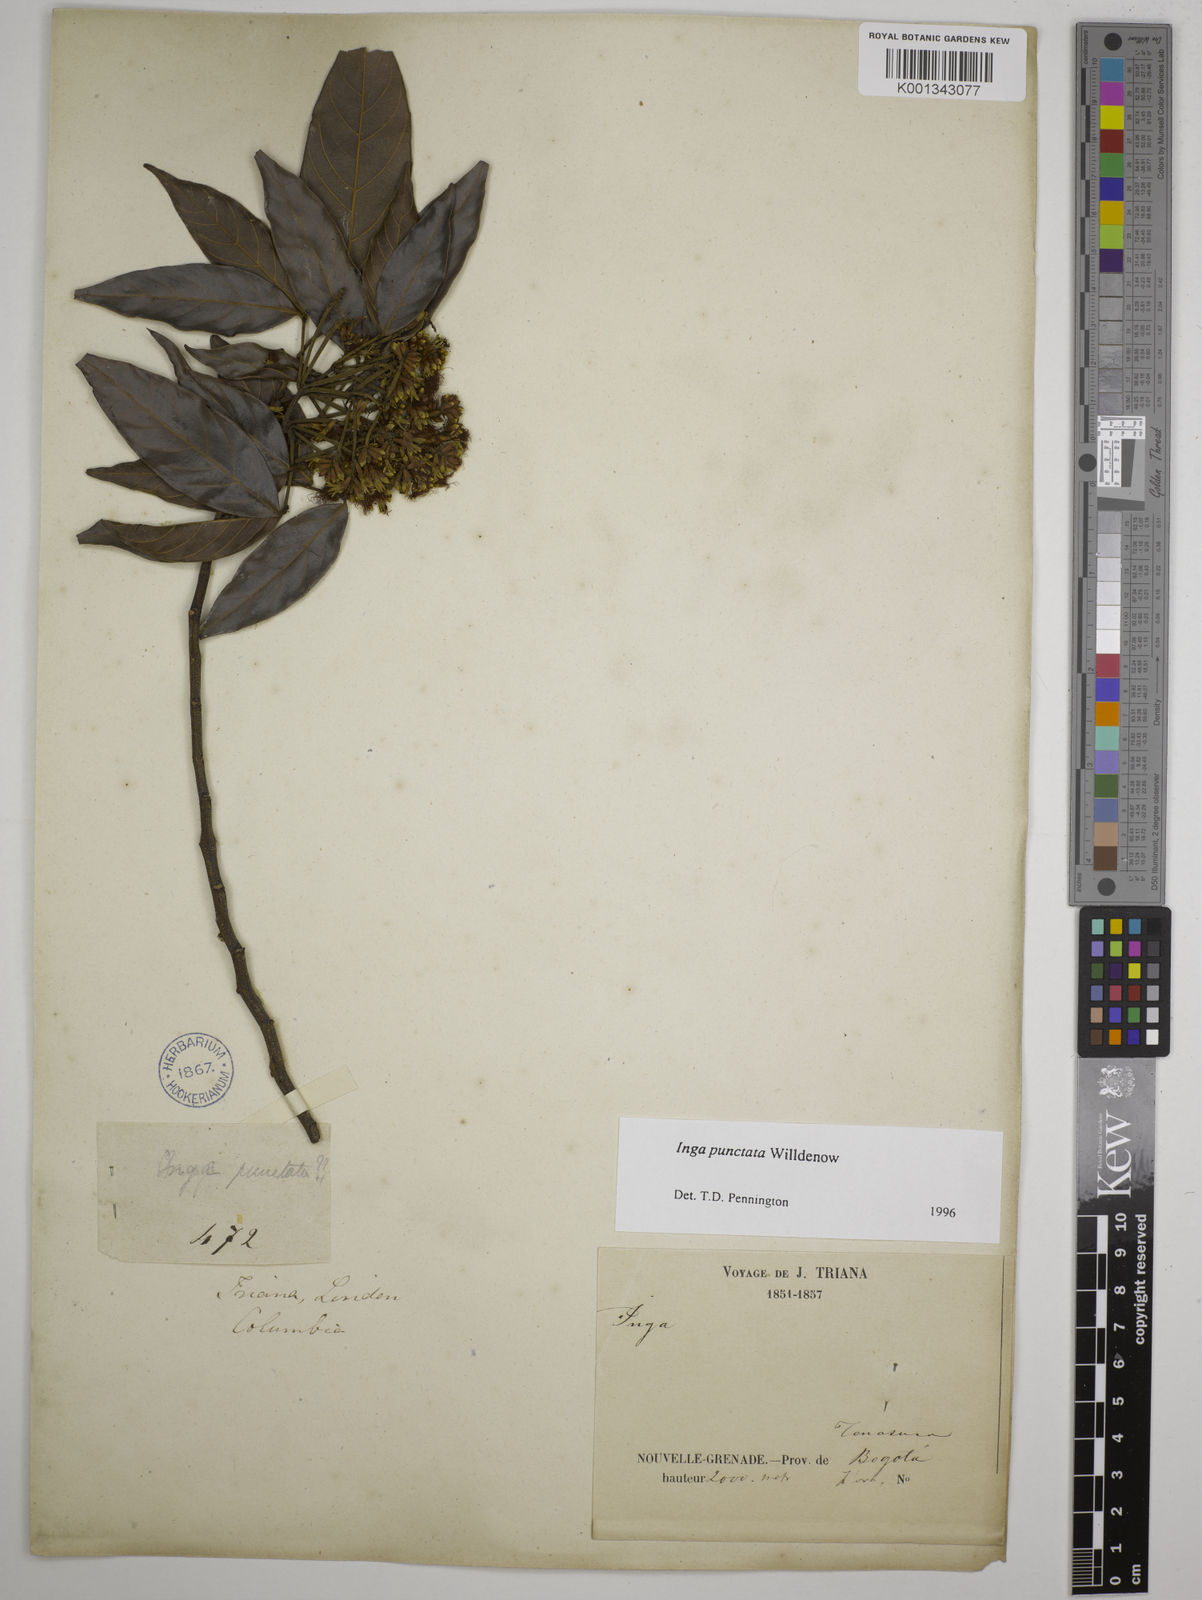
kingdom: Plantae
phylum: Tracheophyta
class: Magnoliopsida
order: Fabales
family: Fabaceae
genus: Inga
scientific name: Inga punctata
